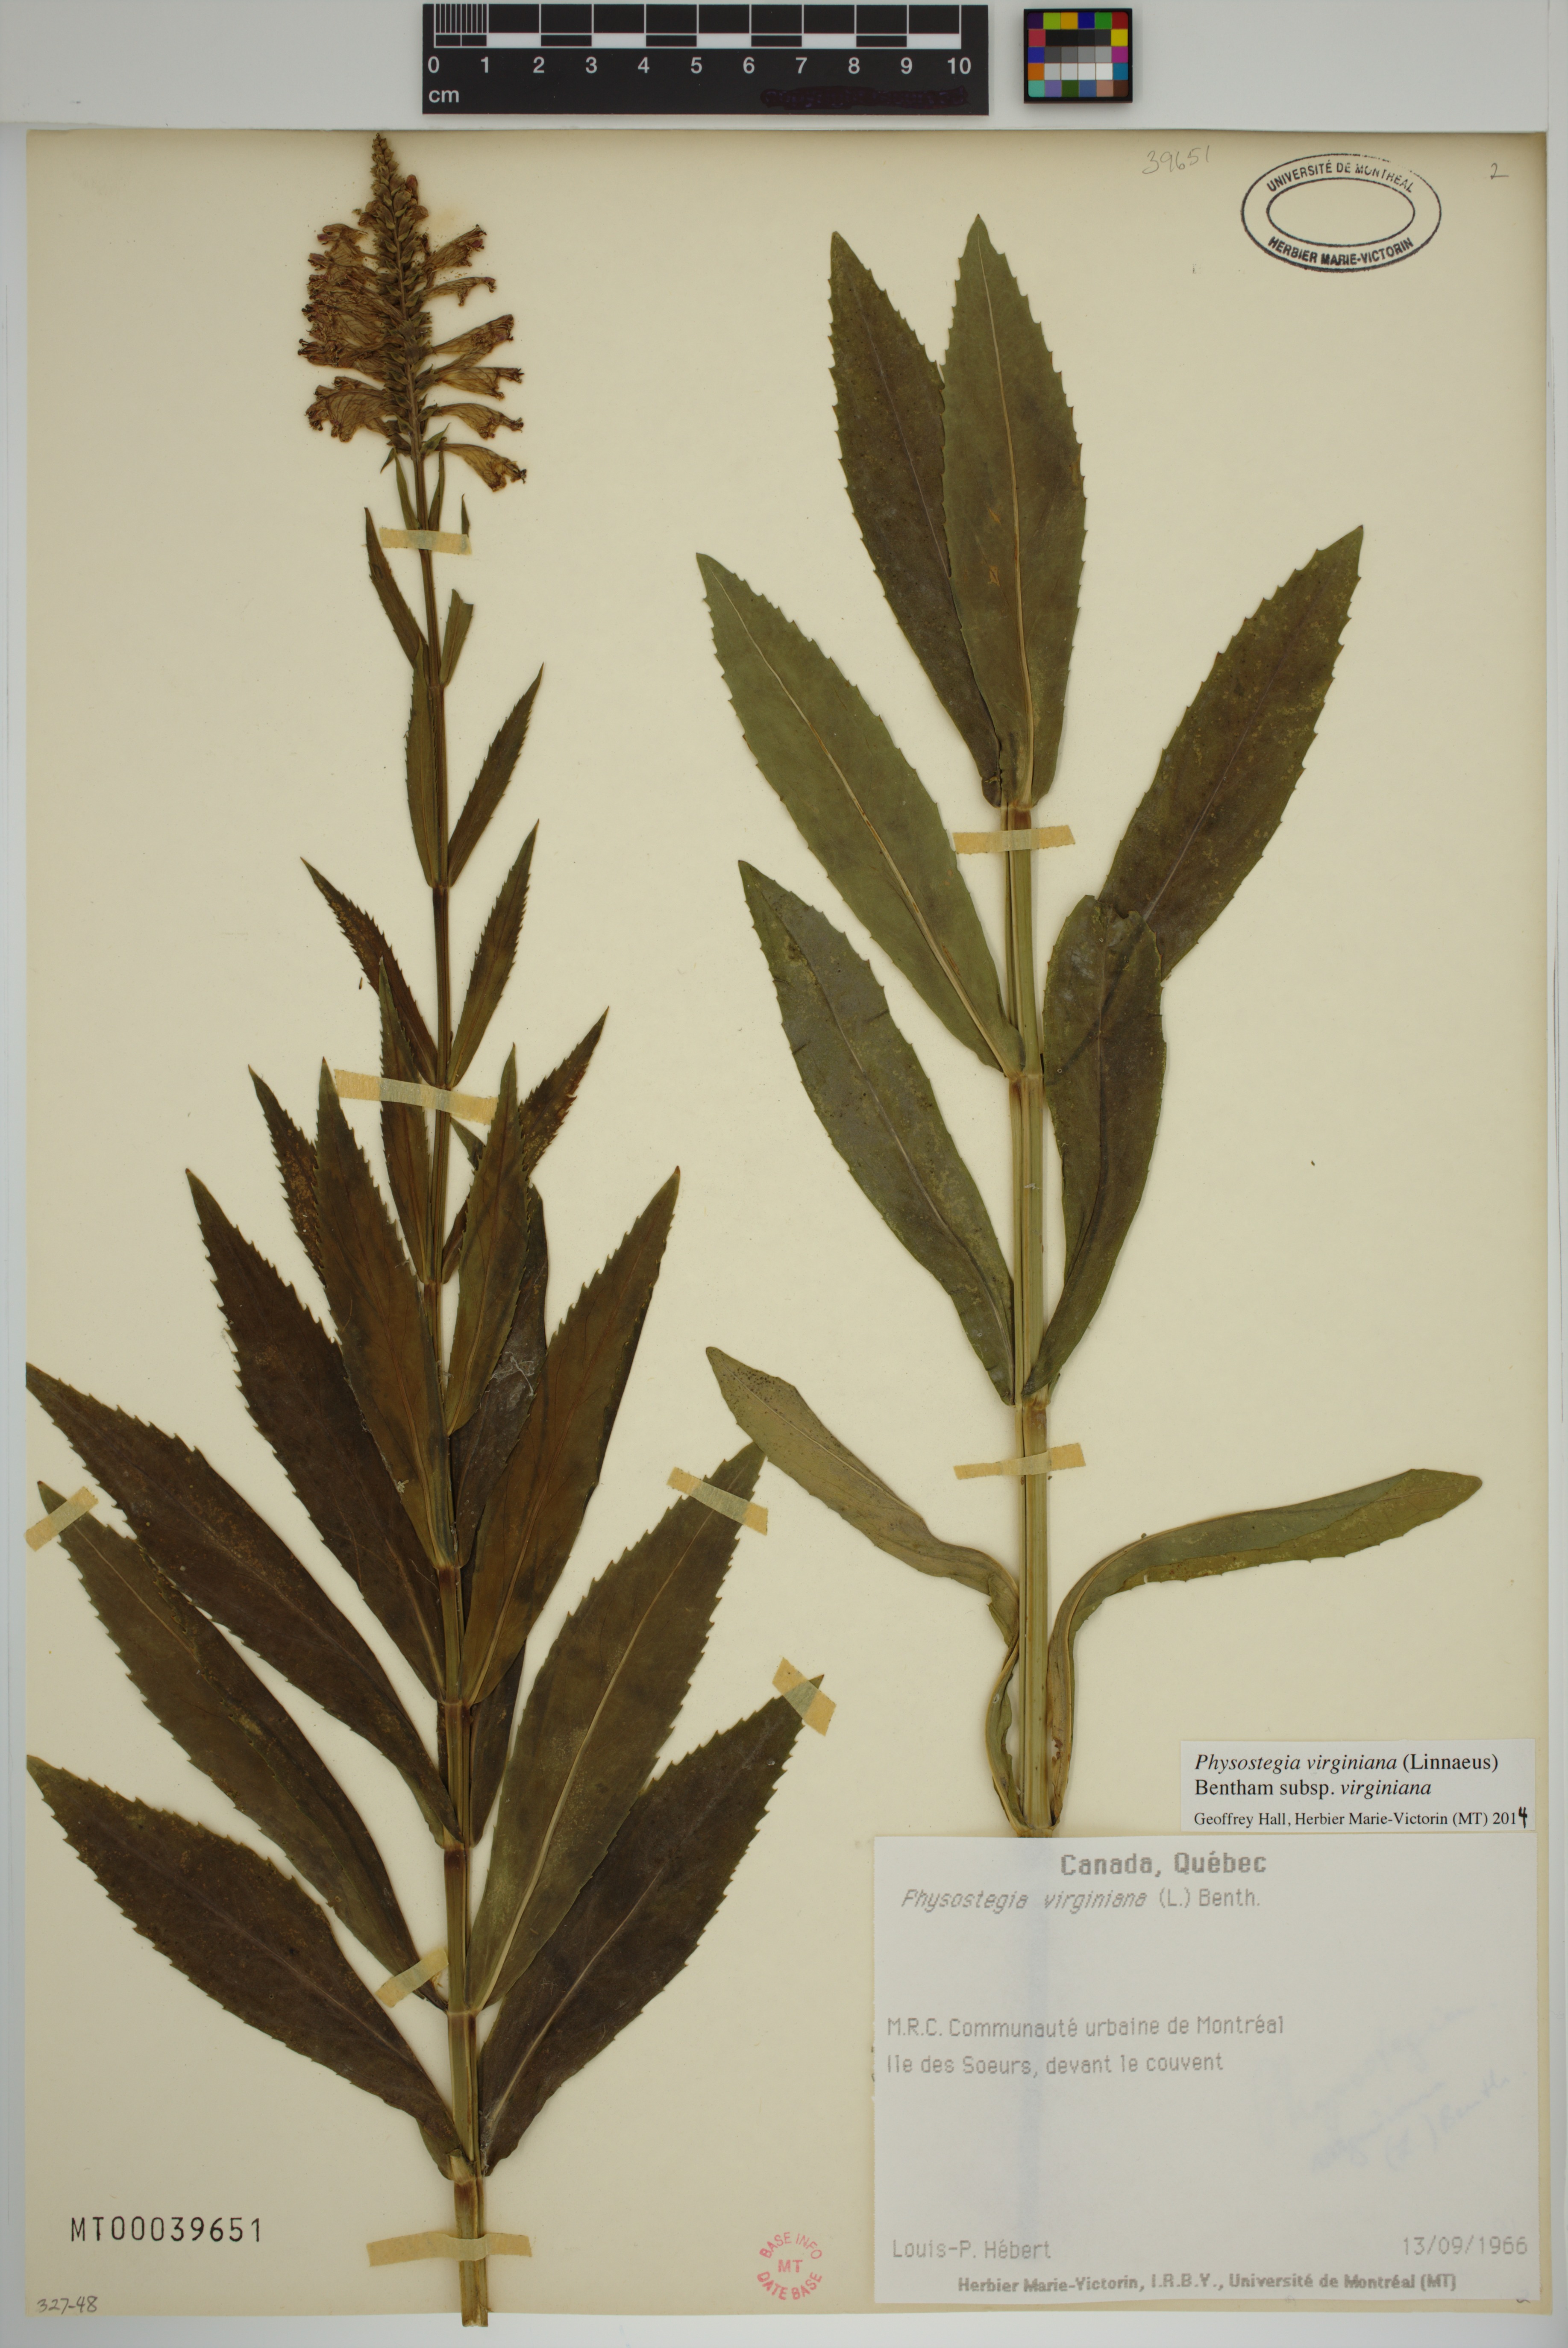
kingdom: Plantae
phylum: Tracheophyta
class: Magnoliopsida
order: Lamiales
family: Lamiaceae
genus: Physostegia
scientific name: Physostegia virginiana
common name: Obedient-plant
